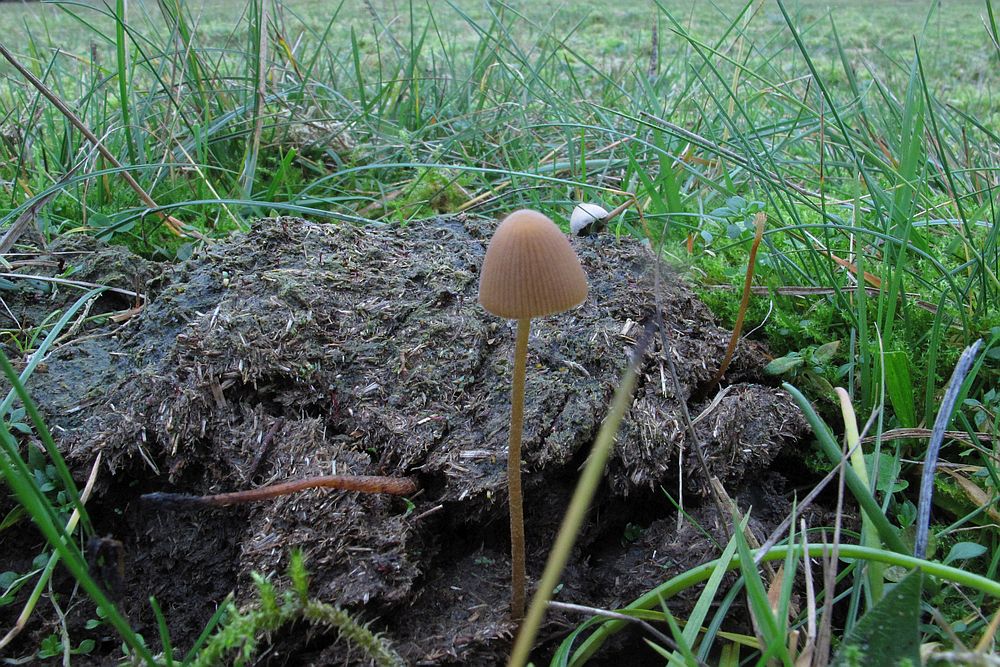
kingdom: Fungi
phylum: Basidiomycota
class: Agaricomycetes
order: Agaricales
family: Bolbitiaceae
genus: Conocybe
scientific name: Conocybe pubescens
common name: gødnings-keglehat
